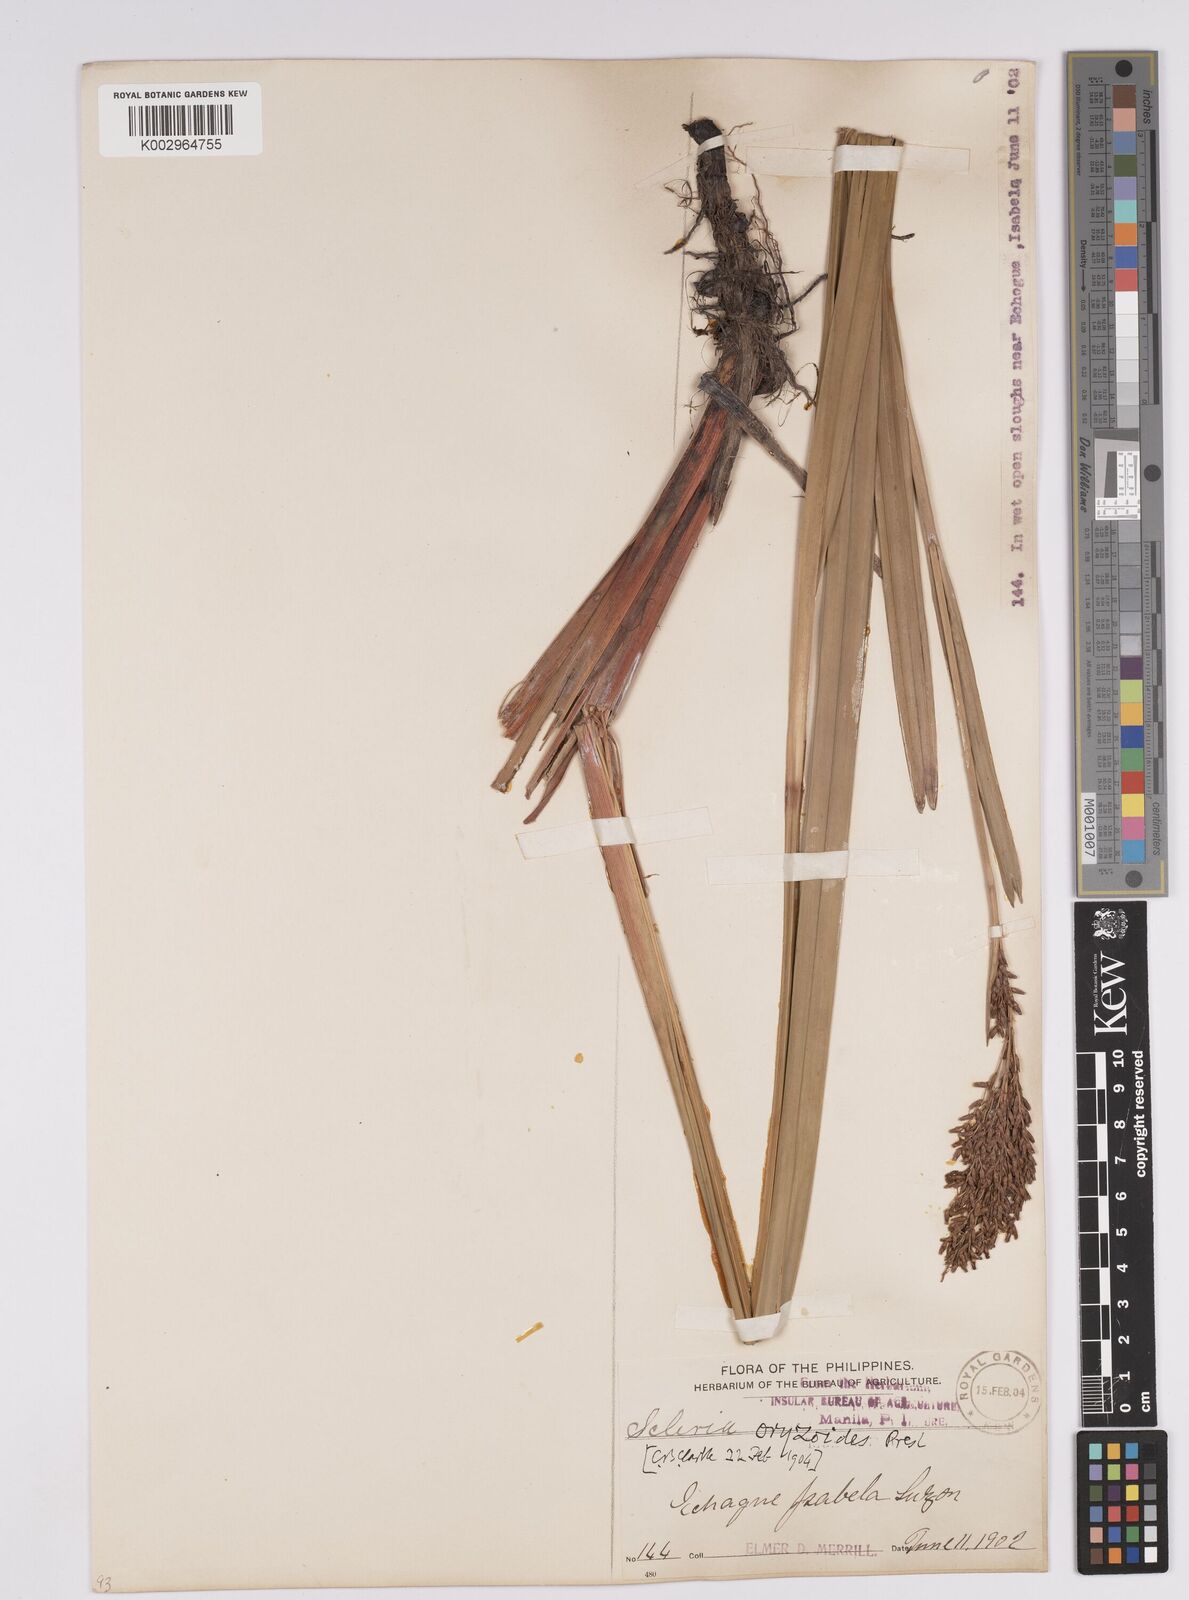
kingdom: Plantae
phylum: Tracheophyta
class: Liliopsida
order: Poales
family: Cyperaceae
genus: Scleria
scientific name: Scleria
